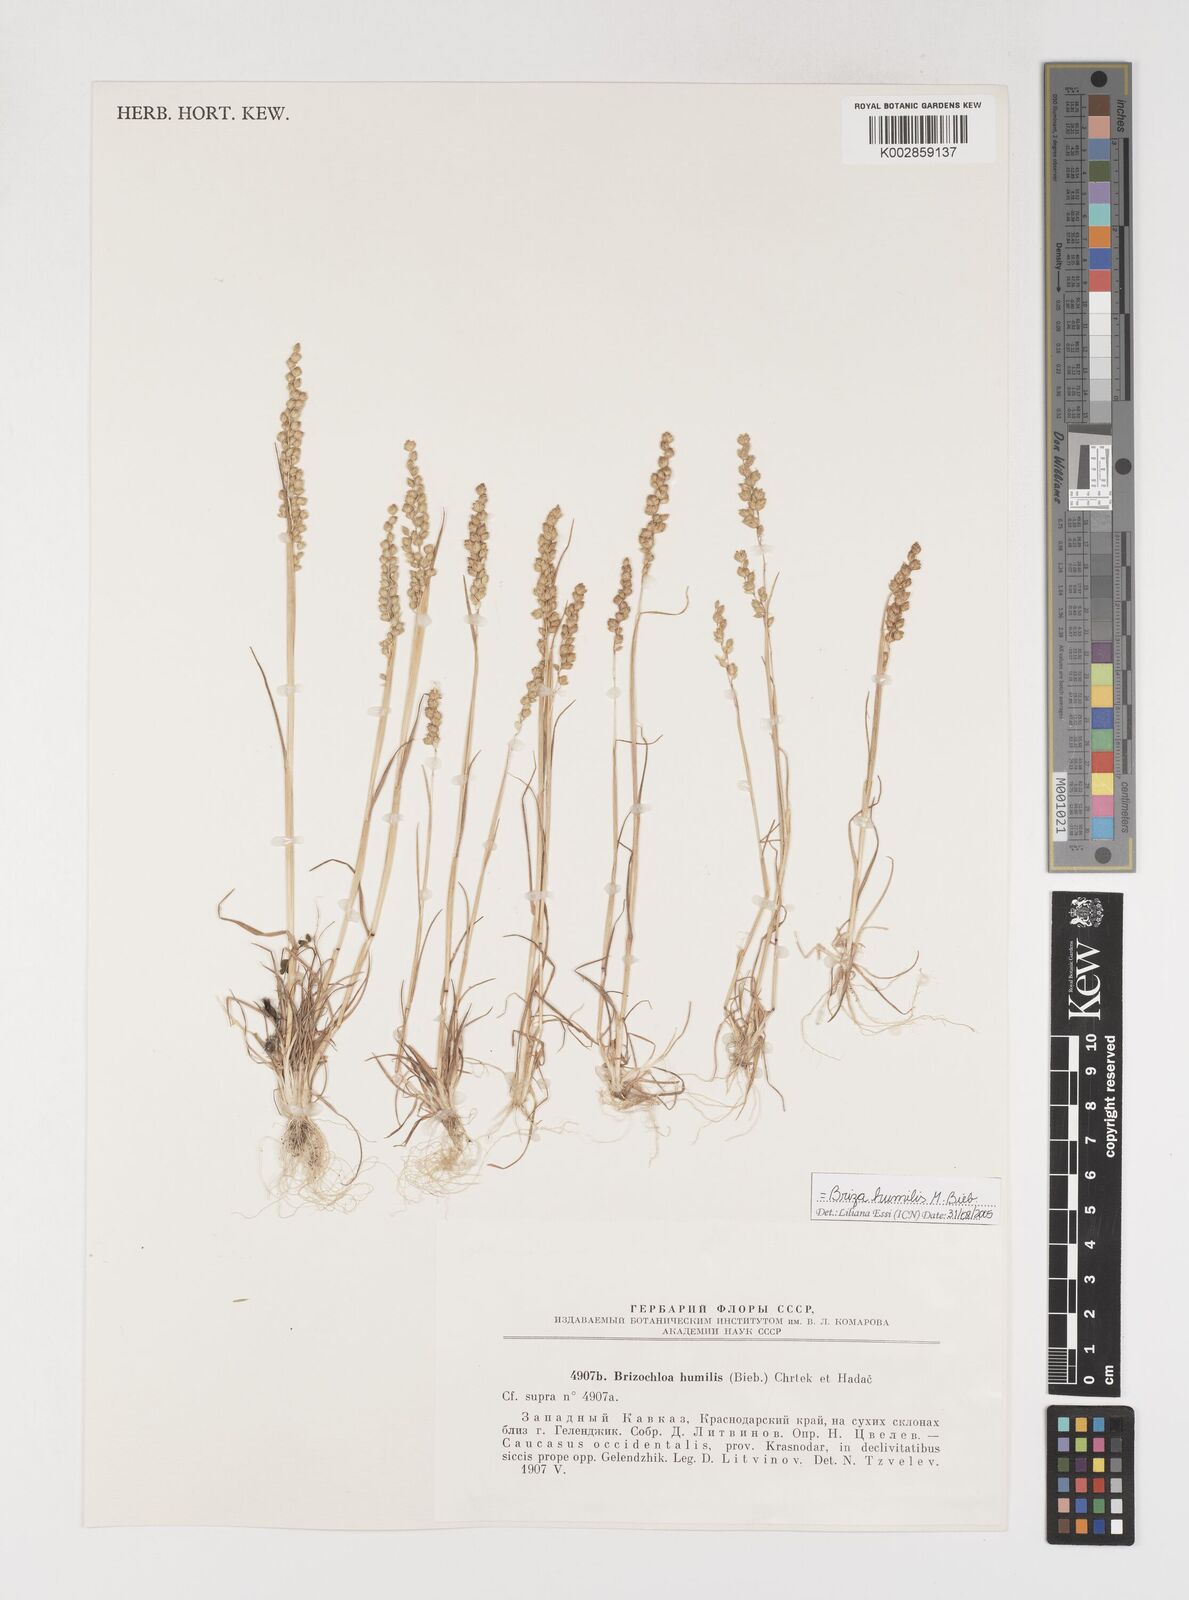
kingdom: Plantae
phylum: Tracheophyta
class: Liliopsida
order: Poales
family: Poaceae
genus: Briza
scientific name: Briza humilis
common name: Spiked quaking grass
